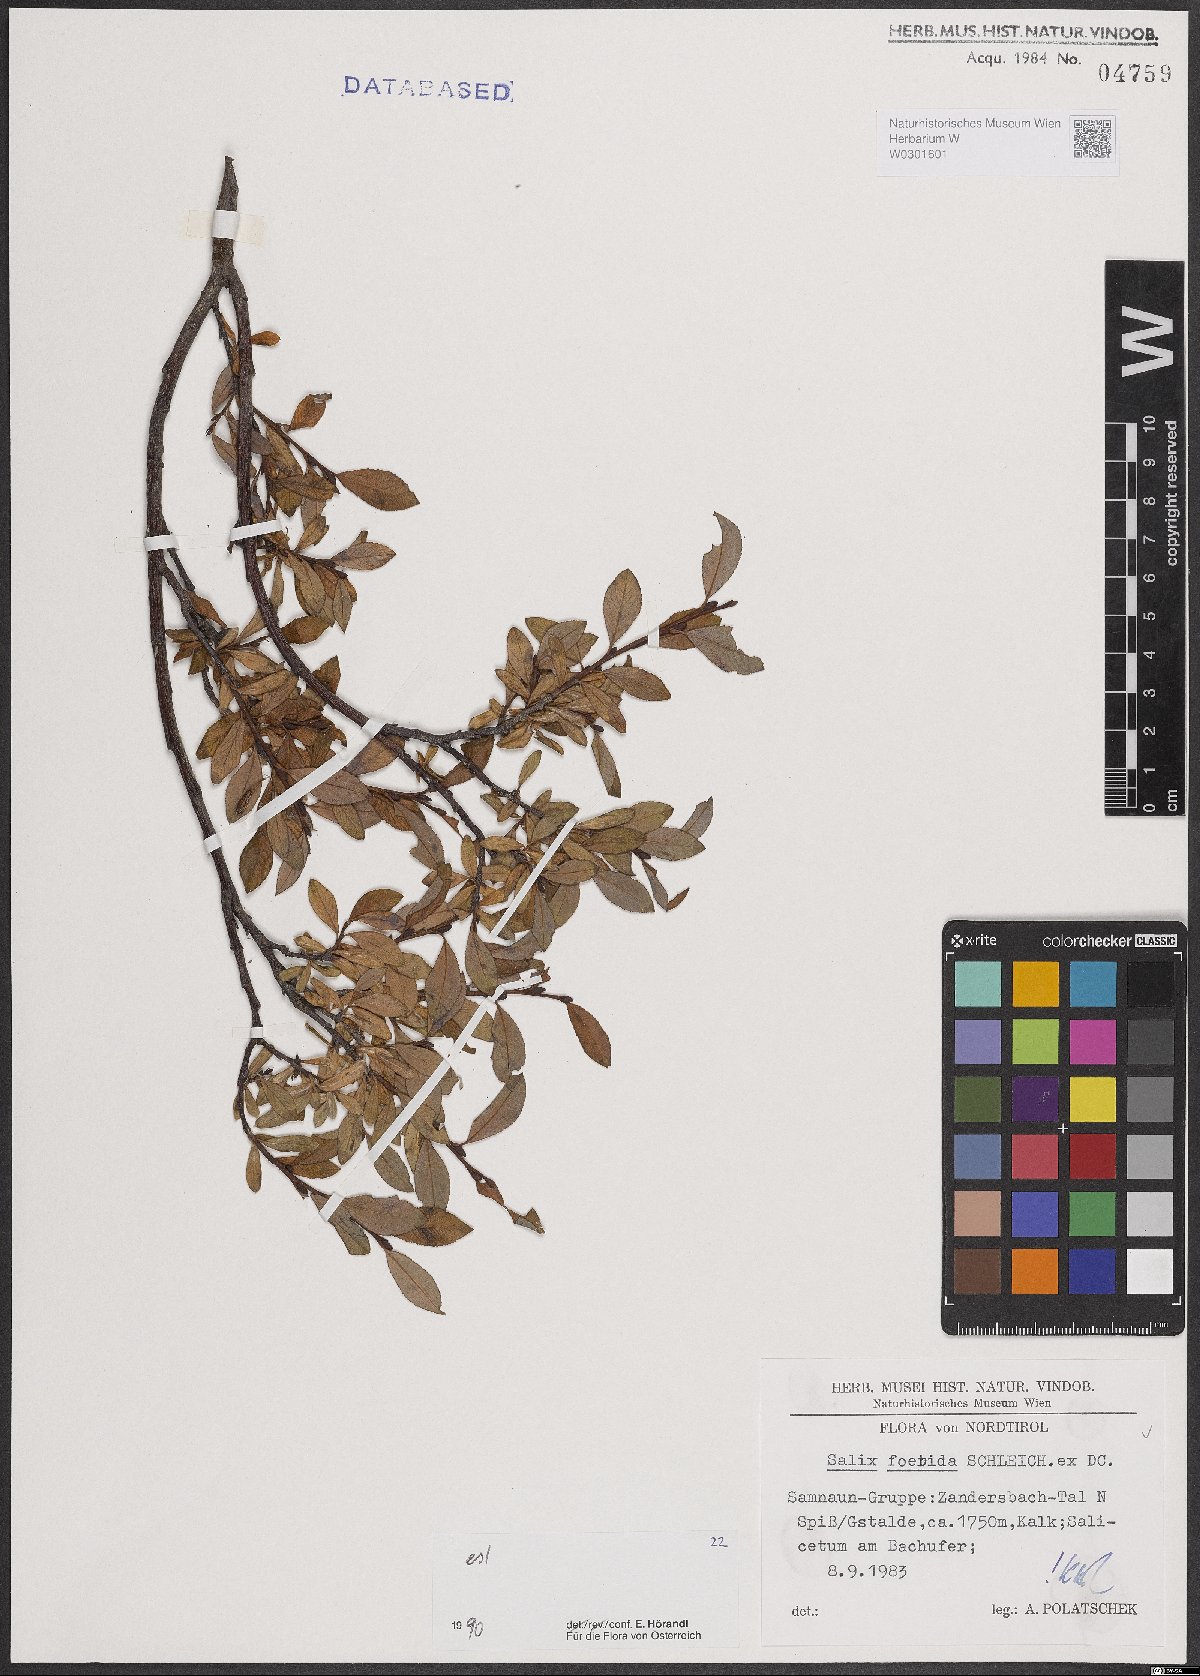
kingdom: Plantae
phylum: Tracheophyta
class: Magnoliopsida
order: Malpighiales
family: Salicaceae
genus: Salix
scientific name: Salix foetida
